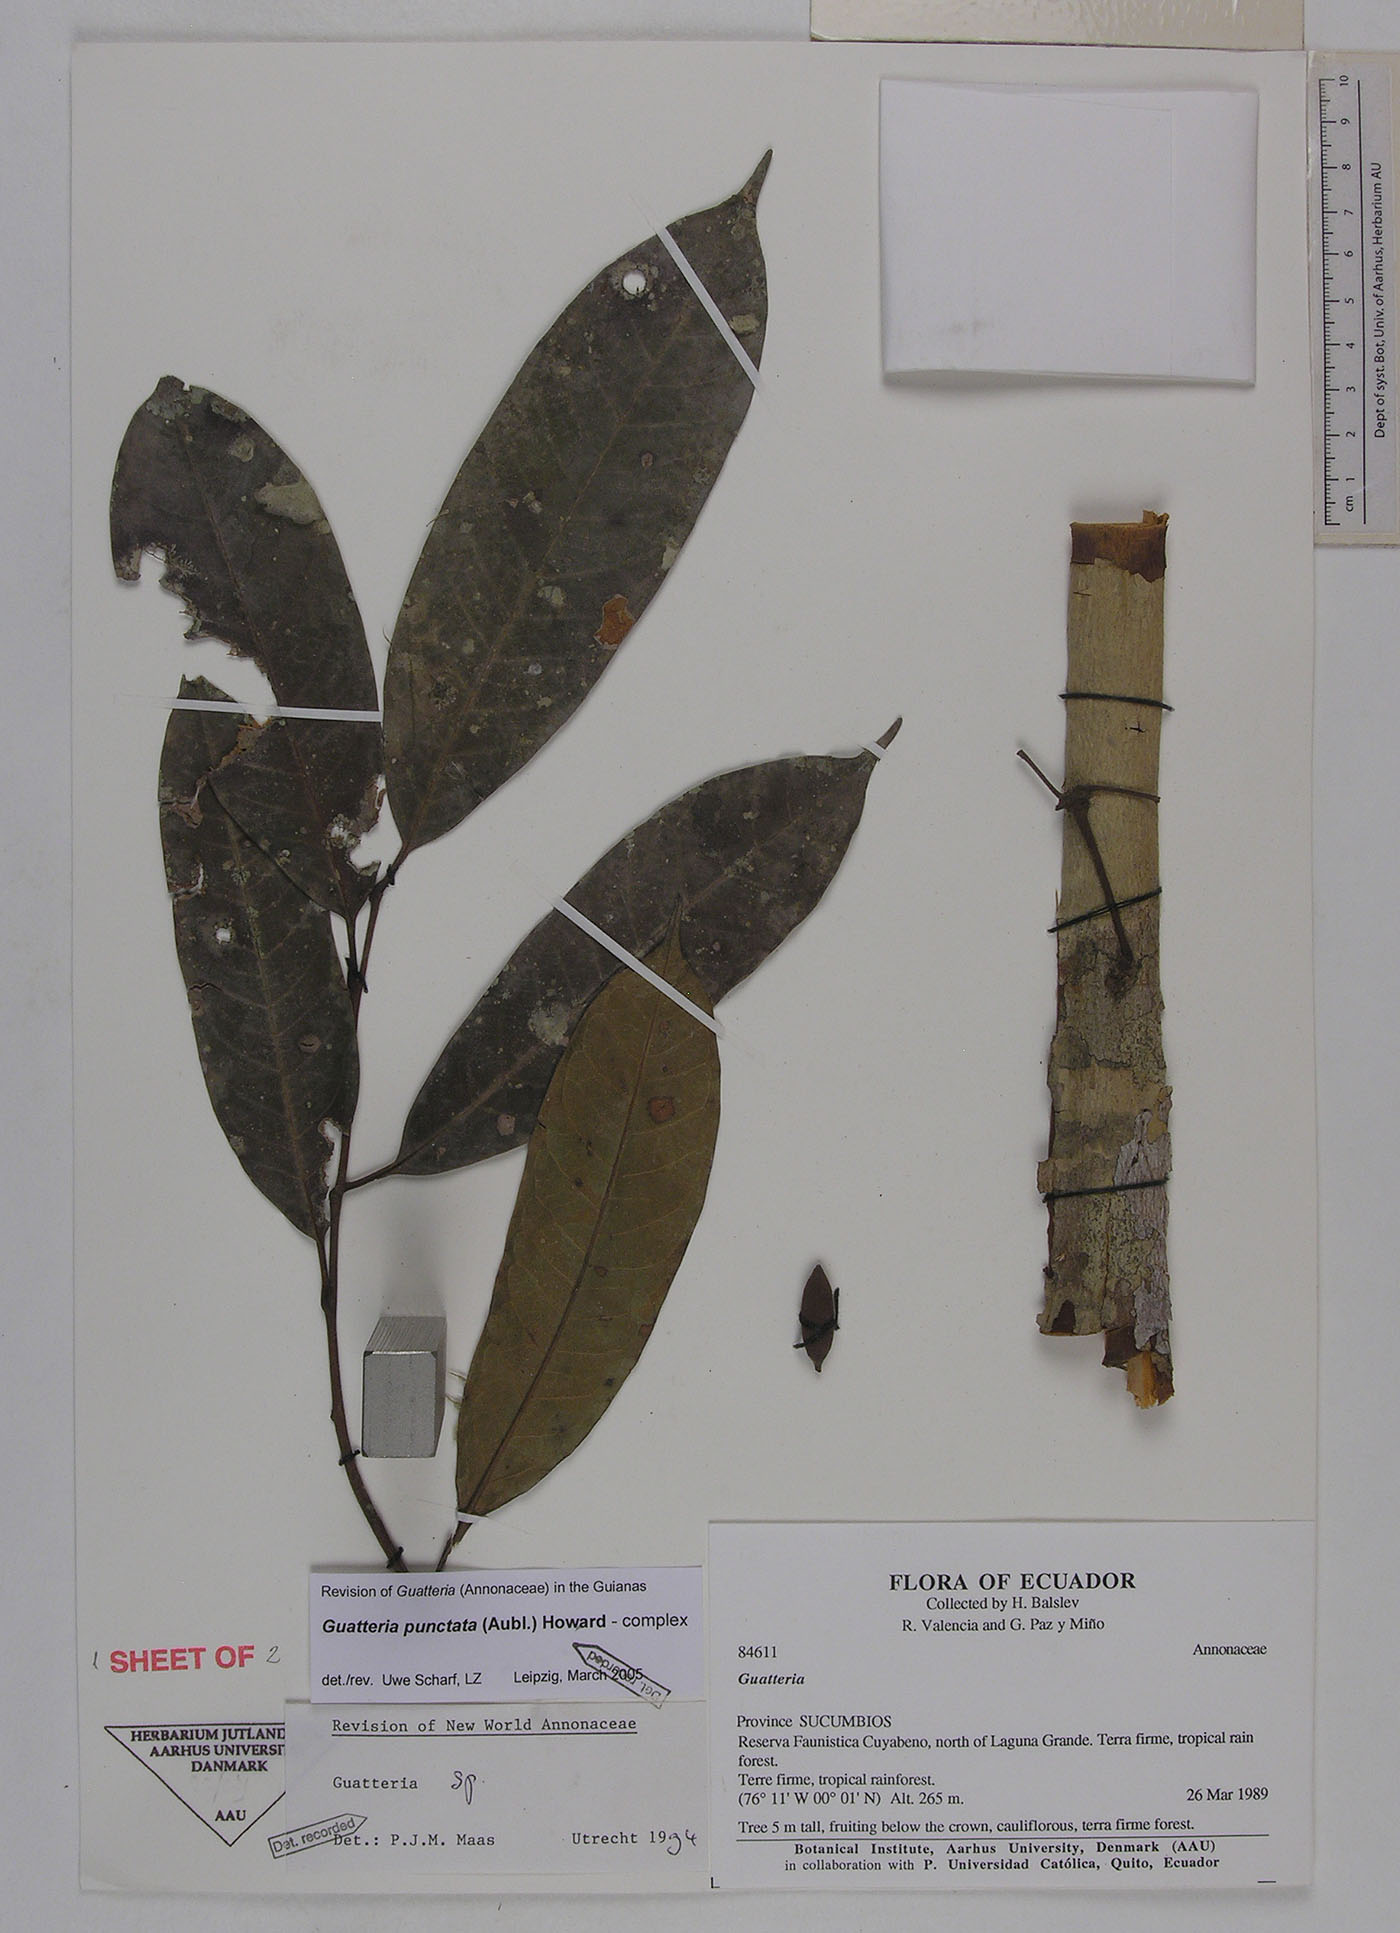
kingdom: Plantae
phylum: Tracheophyta
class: Magnoliopsida
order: Magnoliales
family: Annonaceae
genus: Guatteria
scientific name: Guatteria scalarinervia
